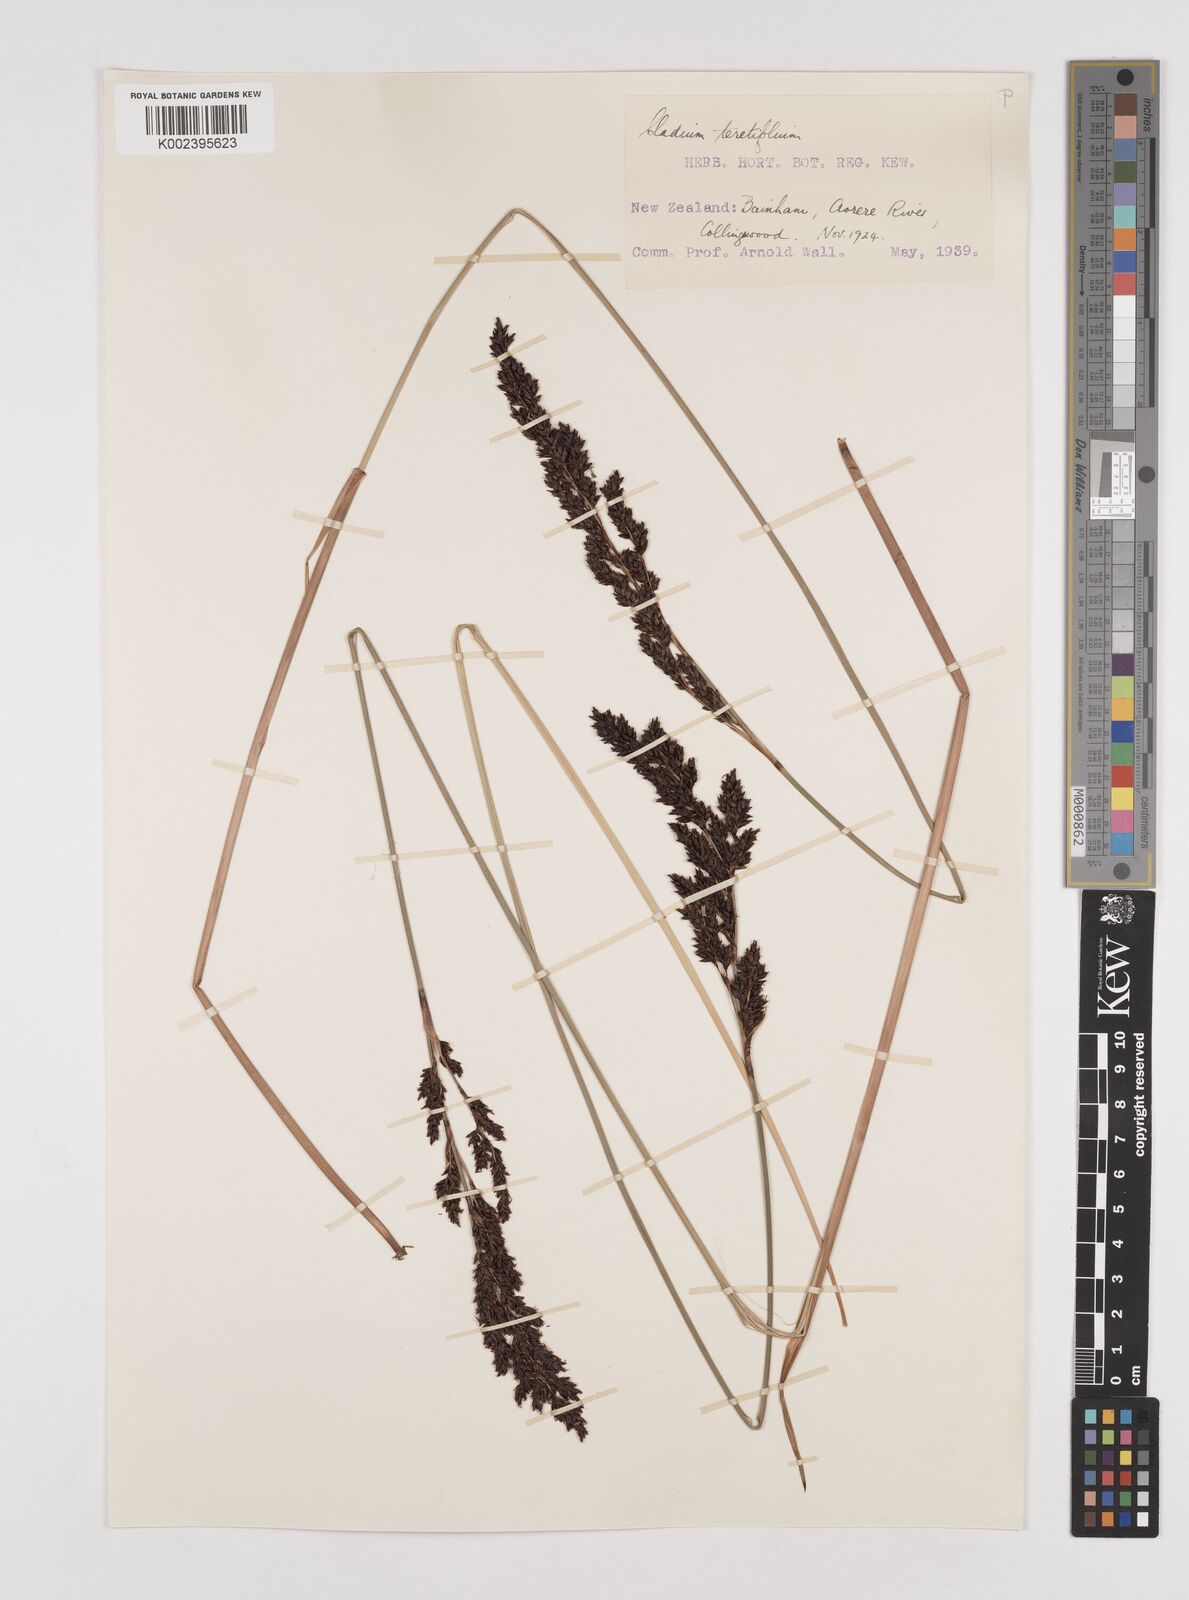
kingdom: Plantae
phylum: Tracheophyta
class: Liliopsida
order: Poales
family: Cyperaceae
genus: Machaerina
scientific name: Machaerina teretifolia
